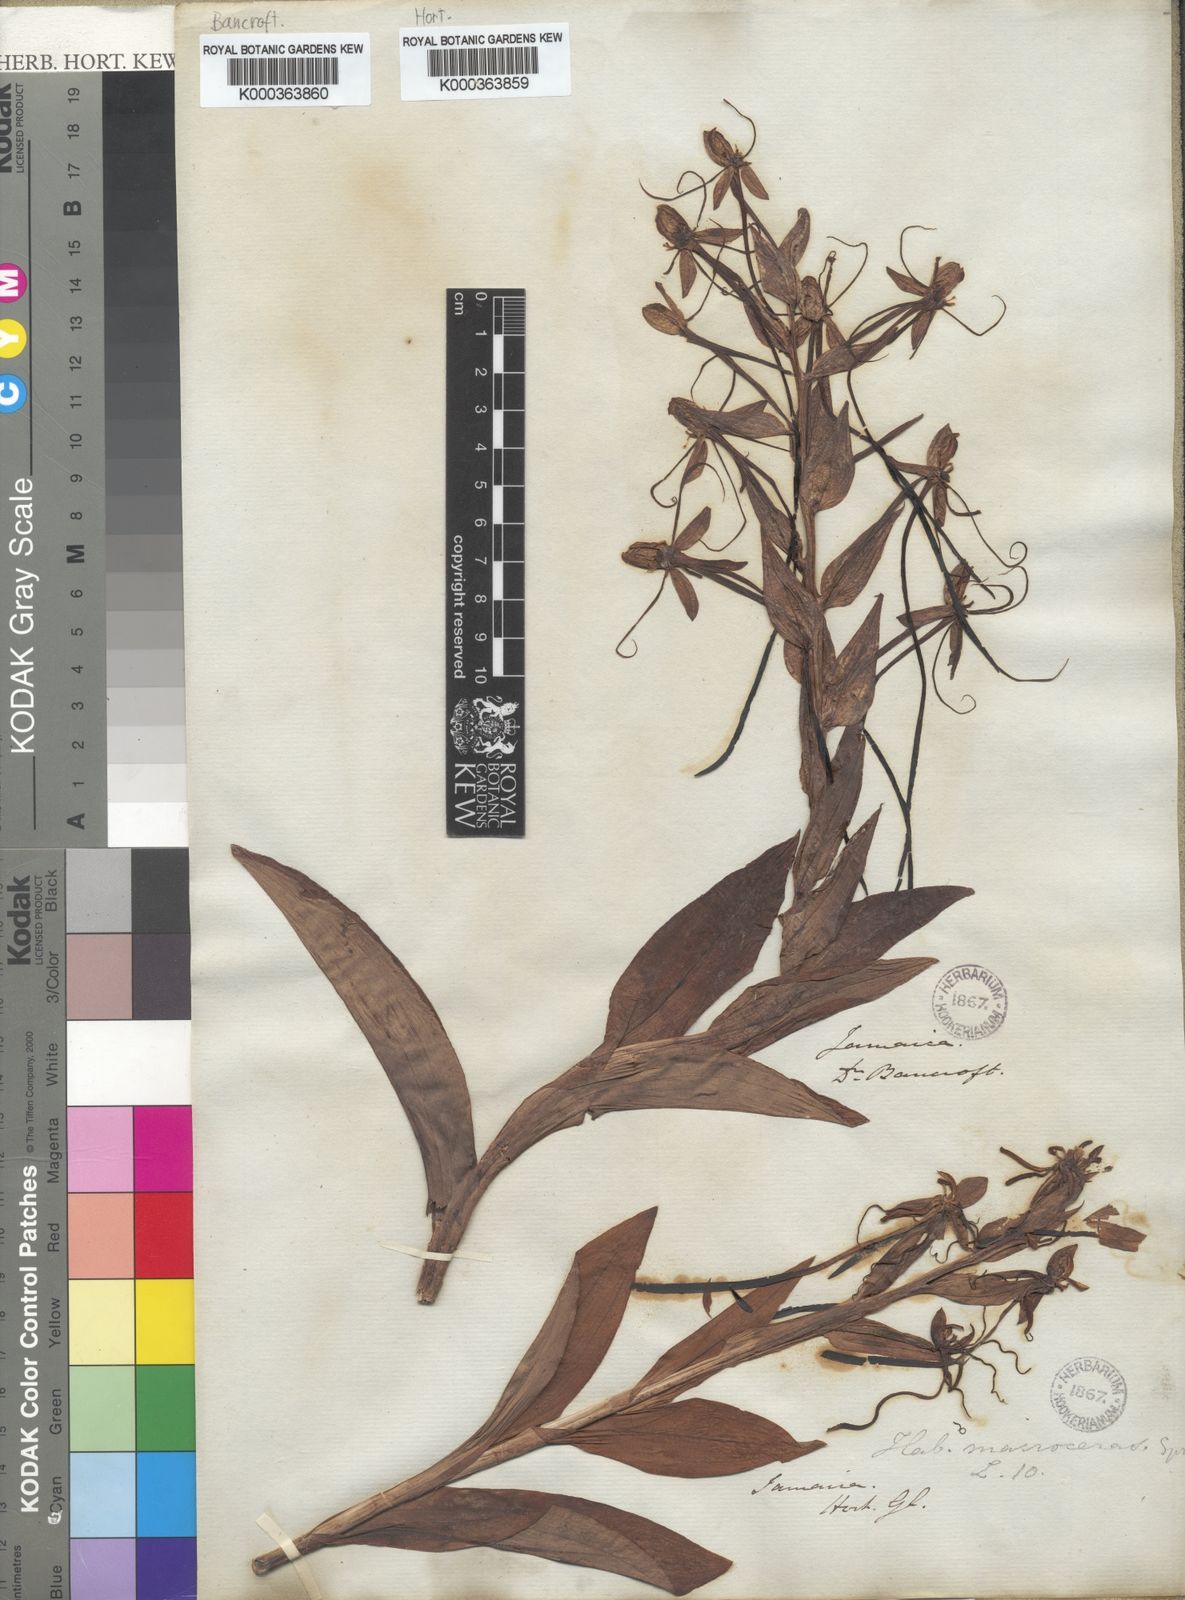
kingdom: Plantae
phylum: Tracheophyta
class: Liliopsida
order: Asparagales
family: Orchidaceae
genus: Habenaria
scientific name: Habenaria
